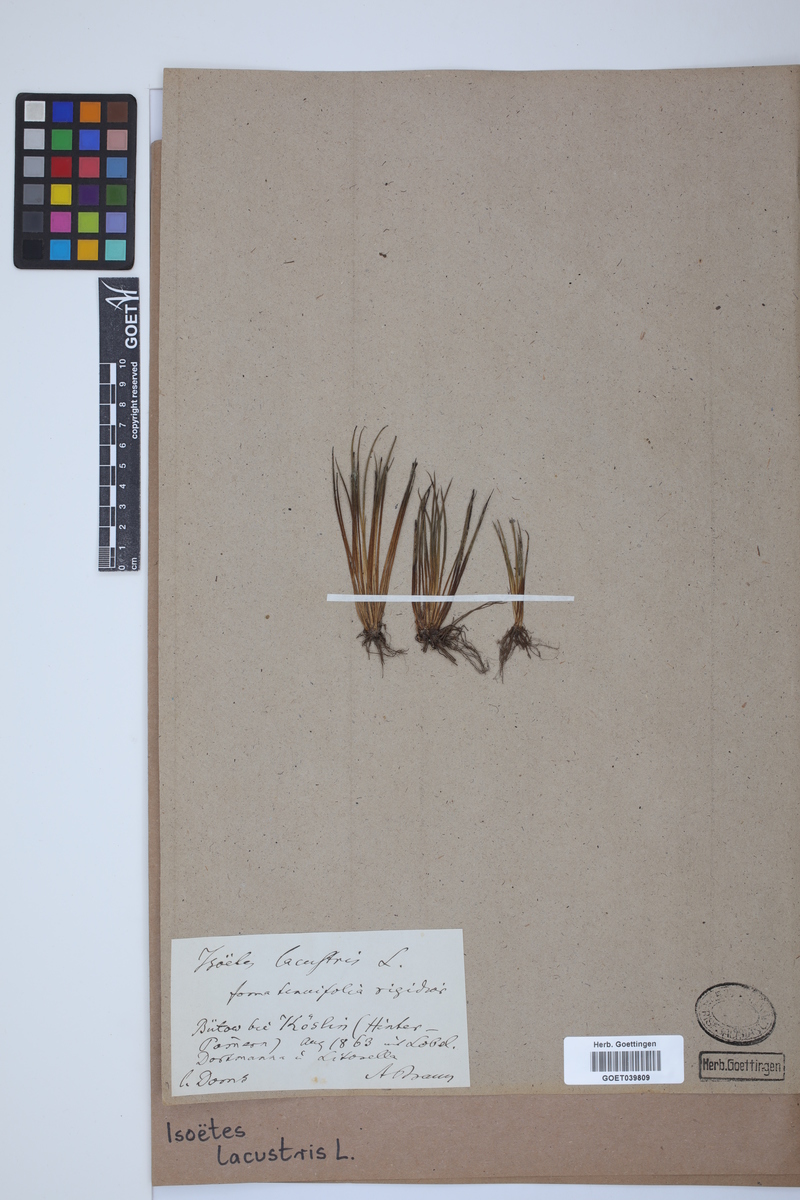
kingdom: Plantae
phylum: Tracheophyta
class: Lycopodiopsida
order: Isoetales
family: Isoetaceae
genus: Isoetes
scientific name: Isoetes lacustris
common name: Common quillwort
